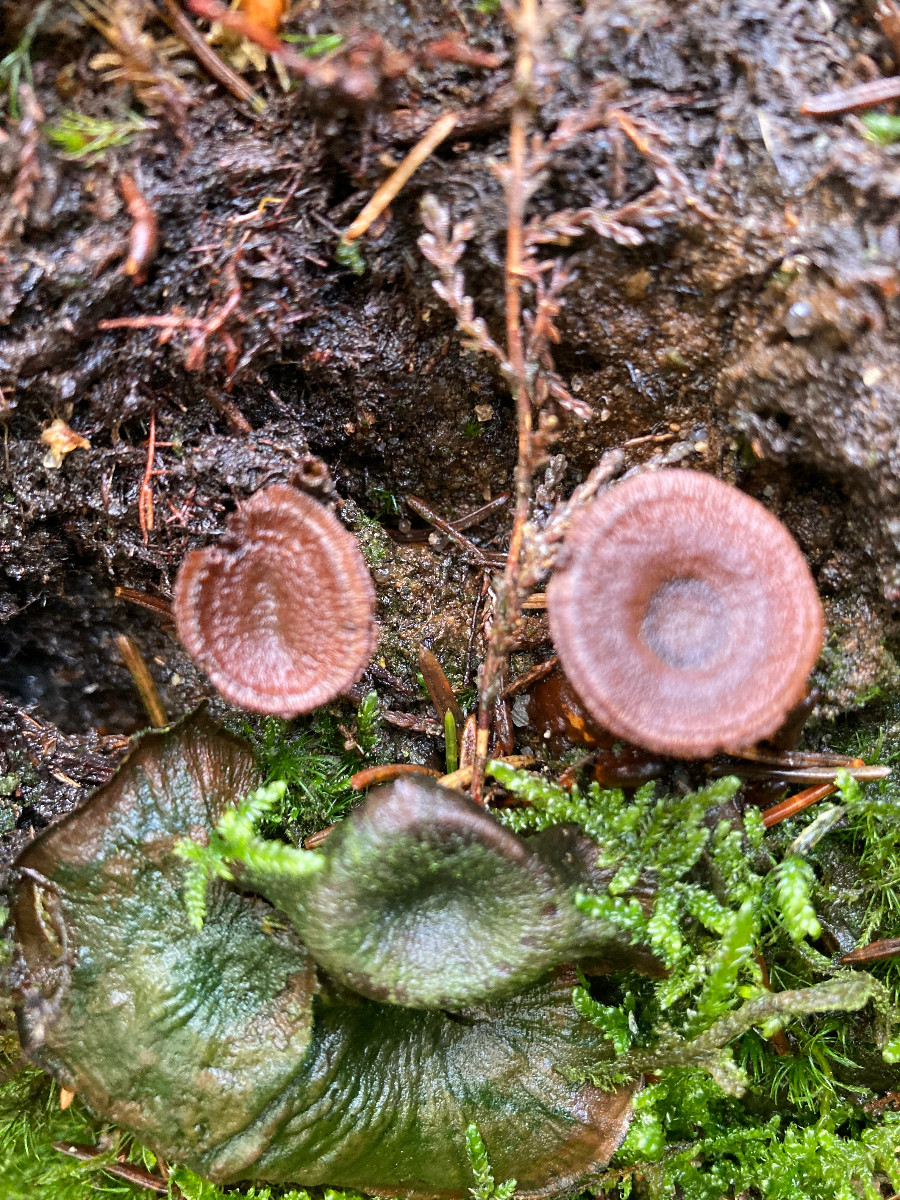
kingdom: Fungi
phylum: Basidiomycota
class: Agaricomycetes
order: Hymenochaetales
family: Hymenochaetaceae
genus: Coltricia
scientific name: Coltricia perennis
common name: almindelig sandporesvamp
